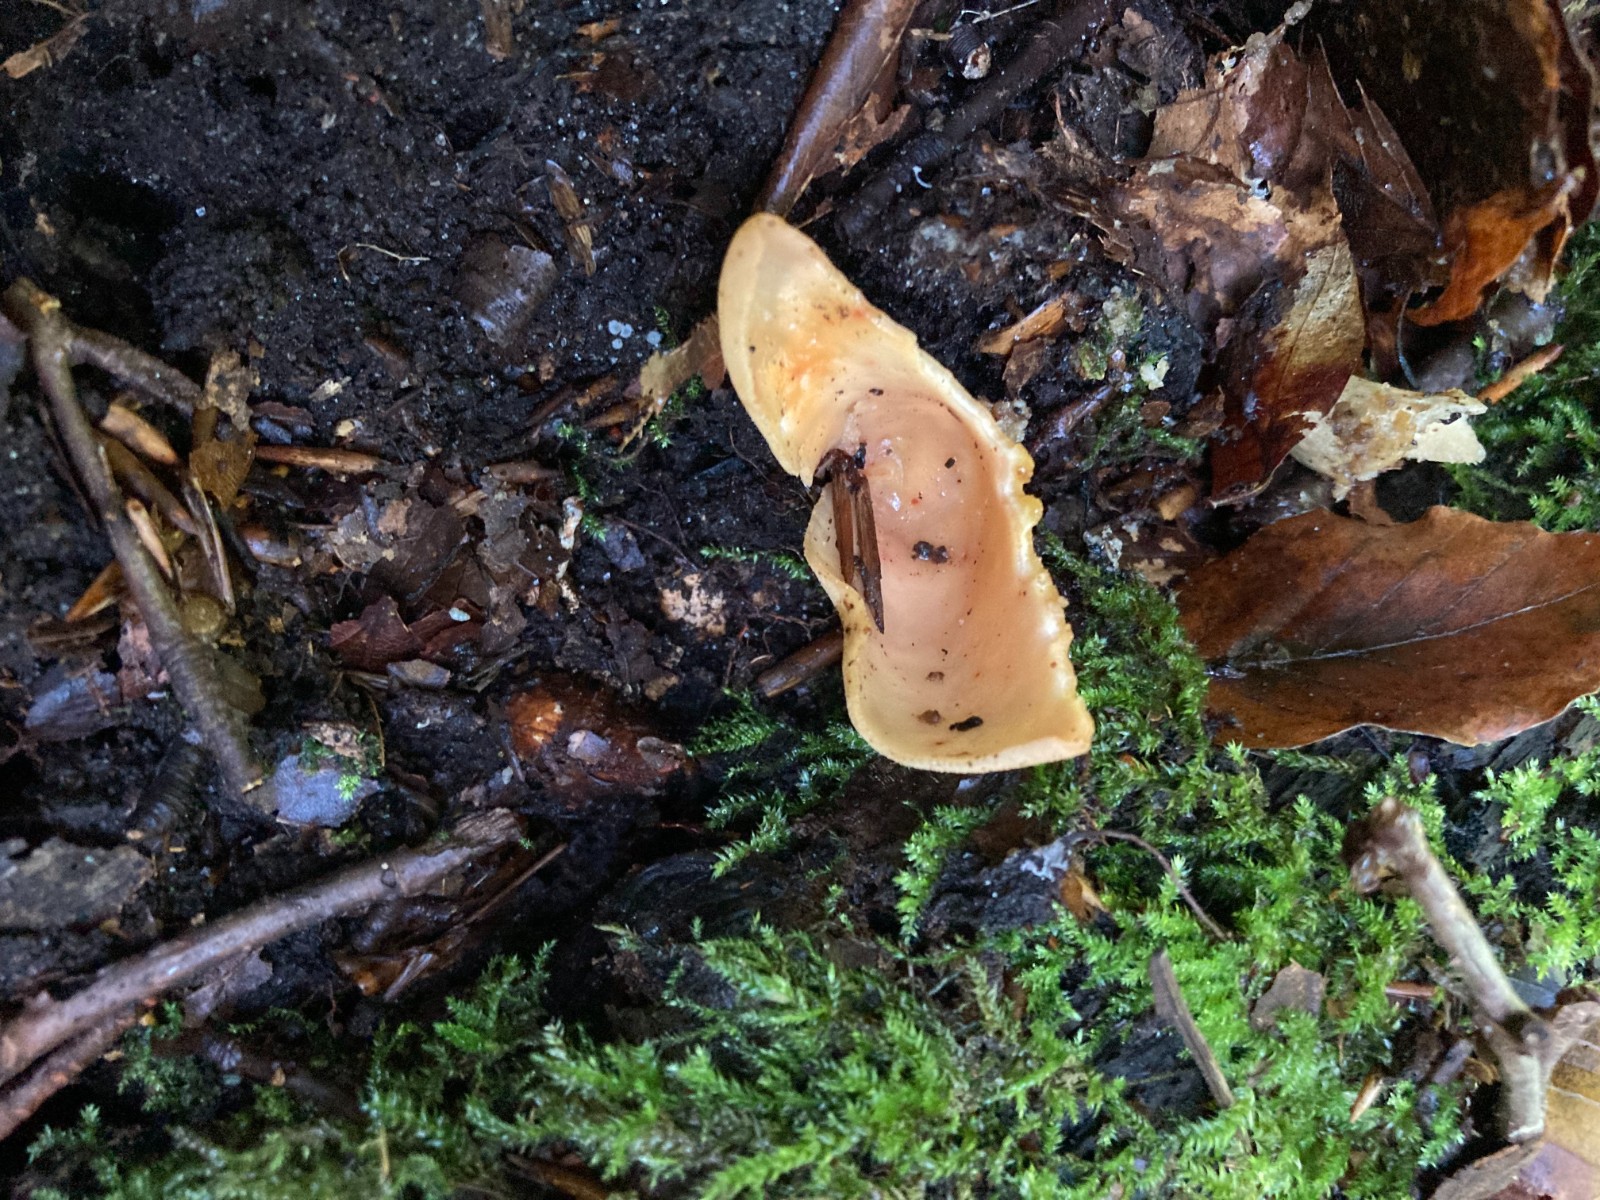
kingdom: Fungi
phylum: Ascomycota
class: Pezizomycetes
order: Pezizales
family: Otideaceae
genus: Otidea
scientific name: Otidea onotica
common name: æsel-ørebæger
